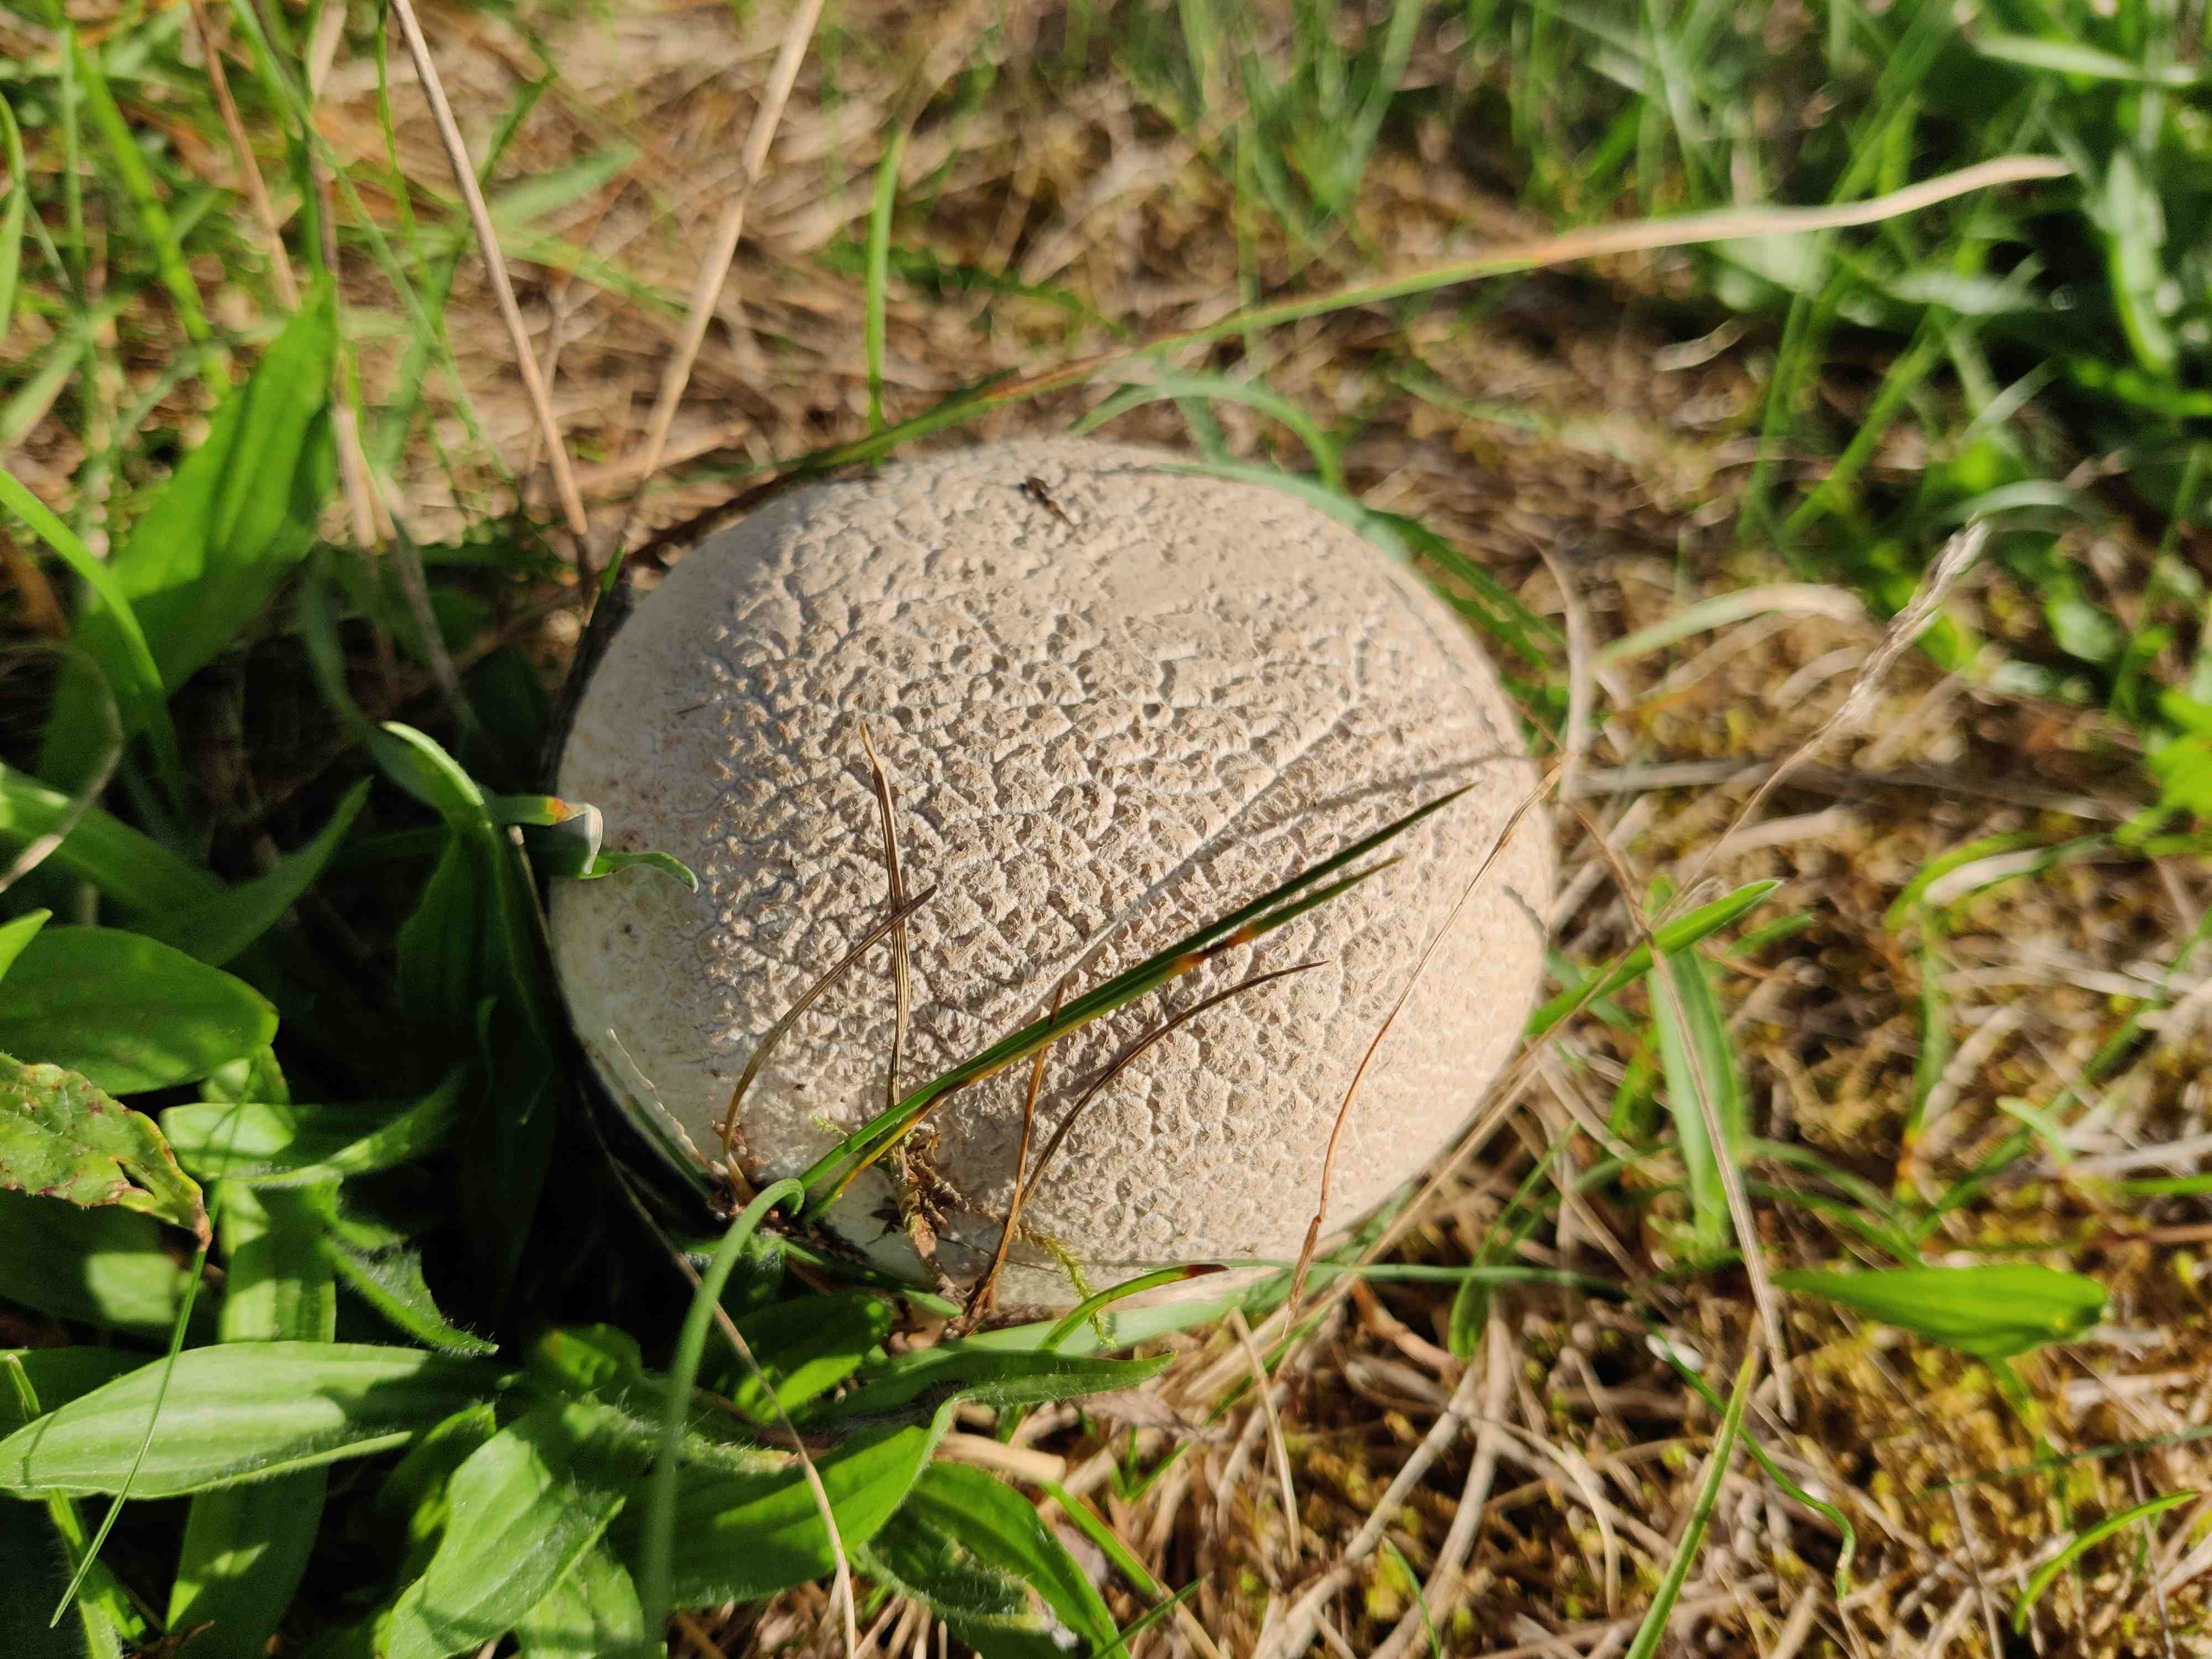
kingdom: Fungi
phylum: Basidiomycota
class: Agaricomycetes
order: Agaricales
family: Lycoperdaceae
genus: Bovistella
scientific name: Bovistella utriformis
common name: skællet støvbold
